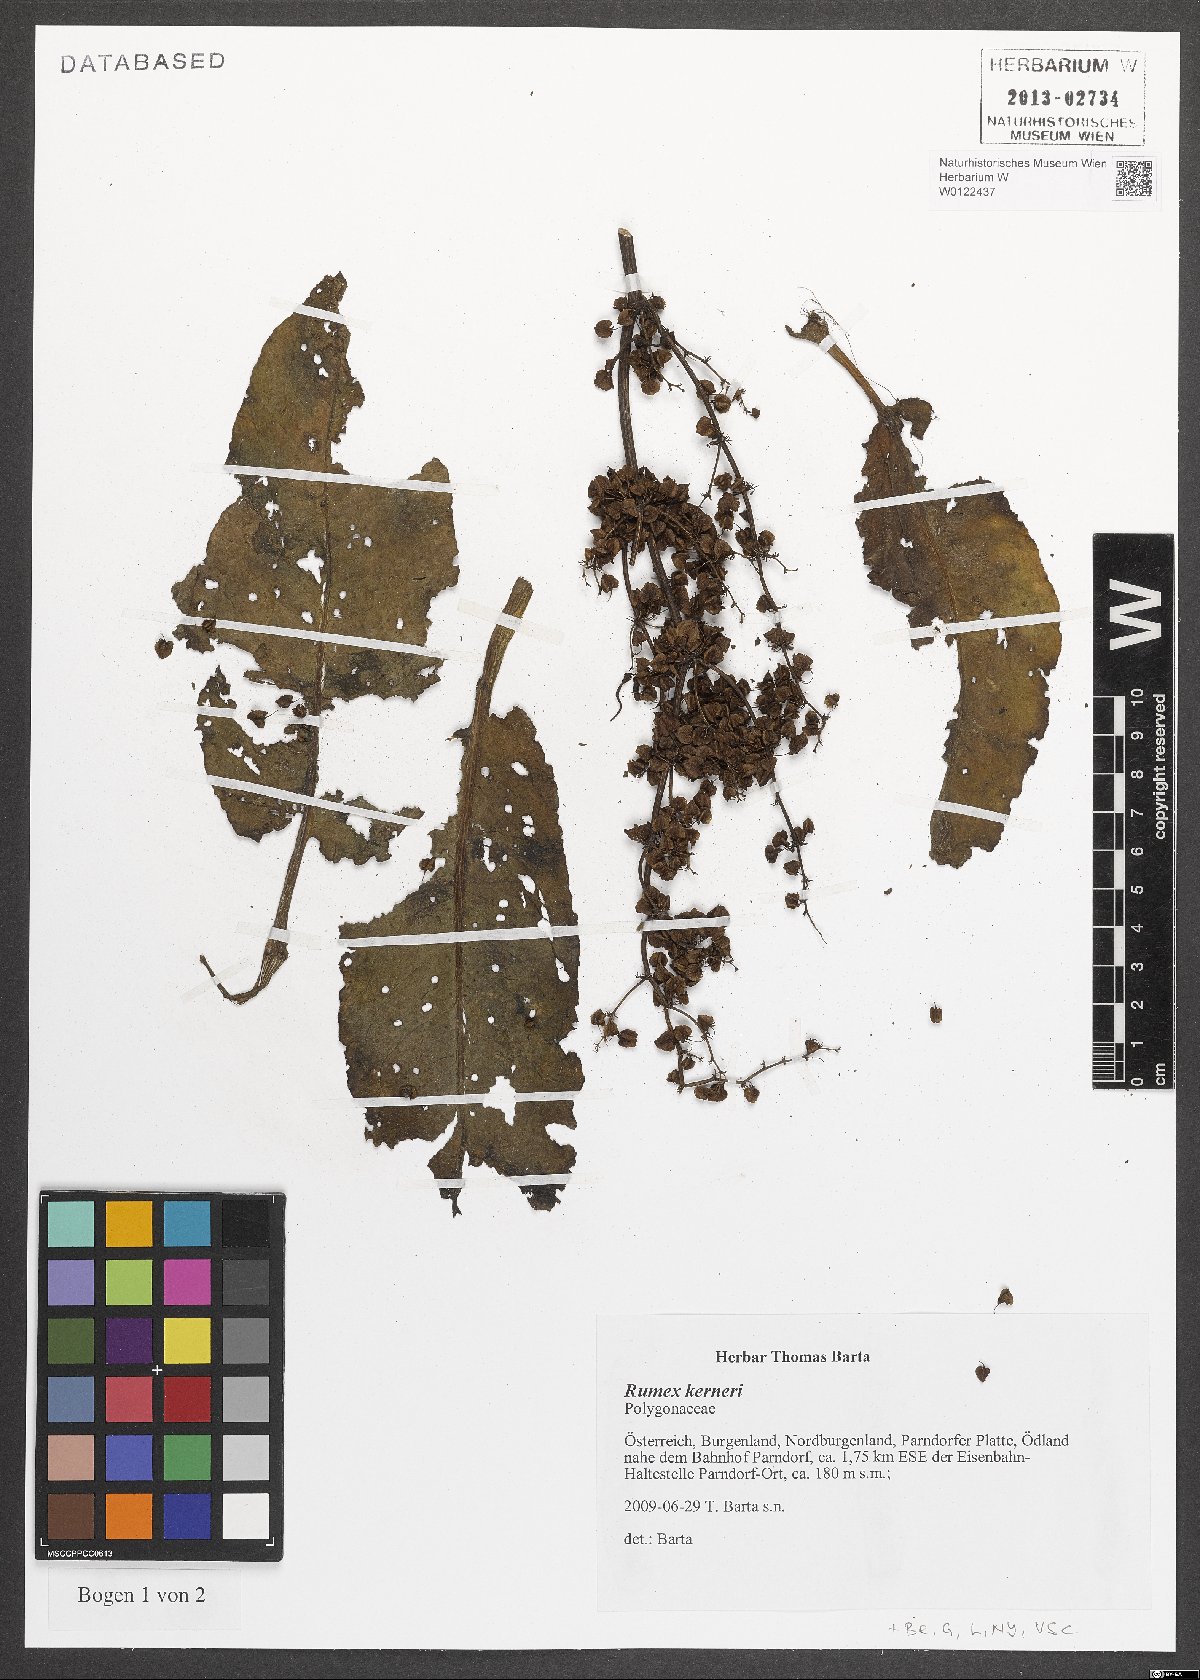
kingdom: Plantae
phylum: Tracheophyta
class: Magnoliopsida
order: Caryophyllales
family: Polygonaceae
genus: Rumex
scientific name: Rumex kerneri
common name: Kerner's dock
